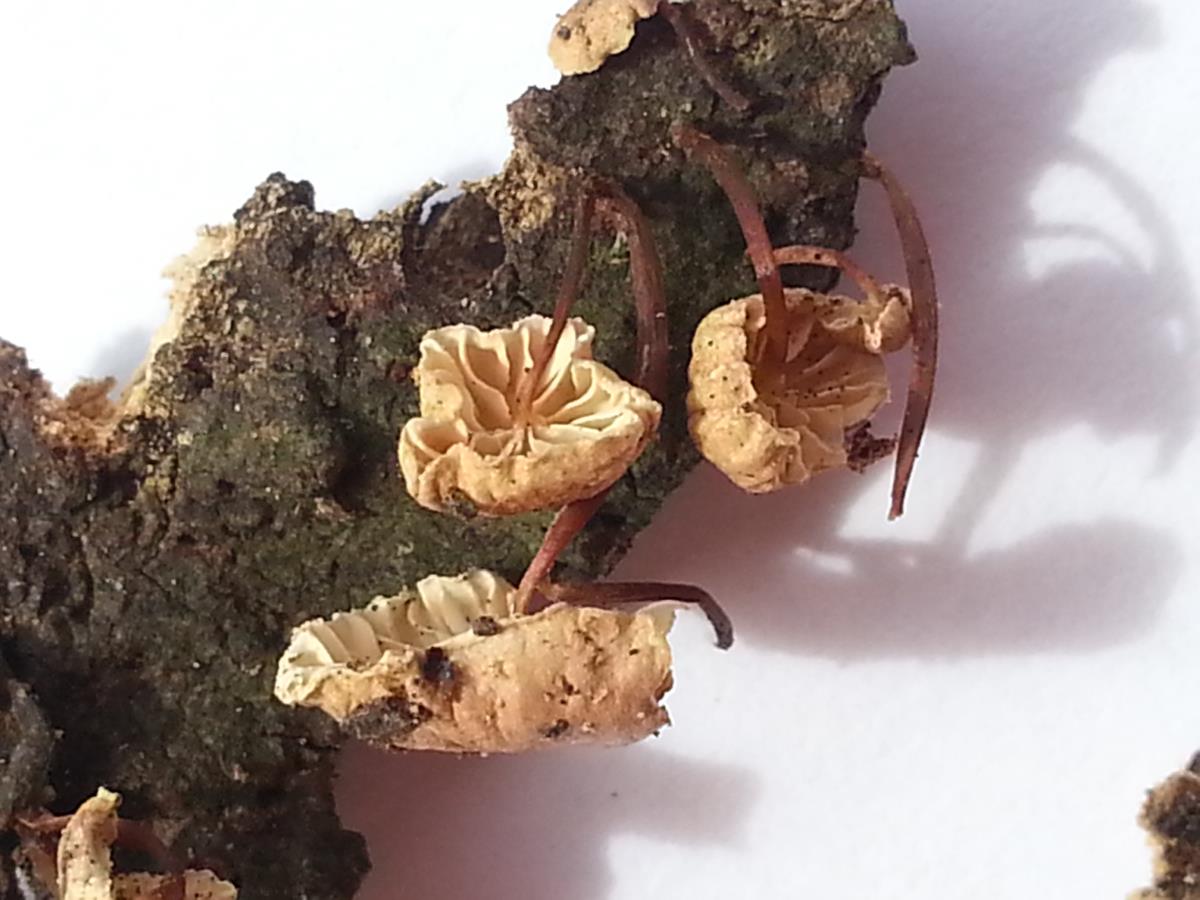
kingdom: Fungi
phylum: Basidiomycota
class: Agaricomycetes
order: Agaricales
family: Omphalotaceae
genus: Mycetinis
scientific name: Mycetinis curraniae
